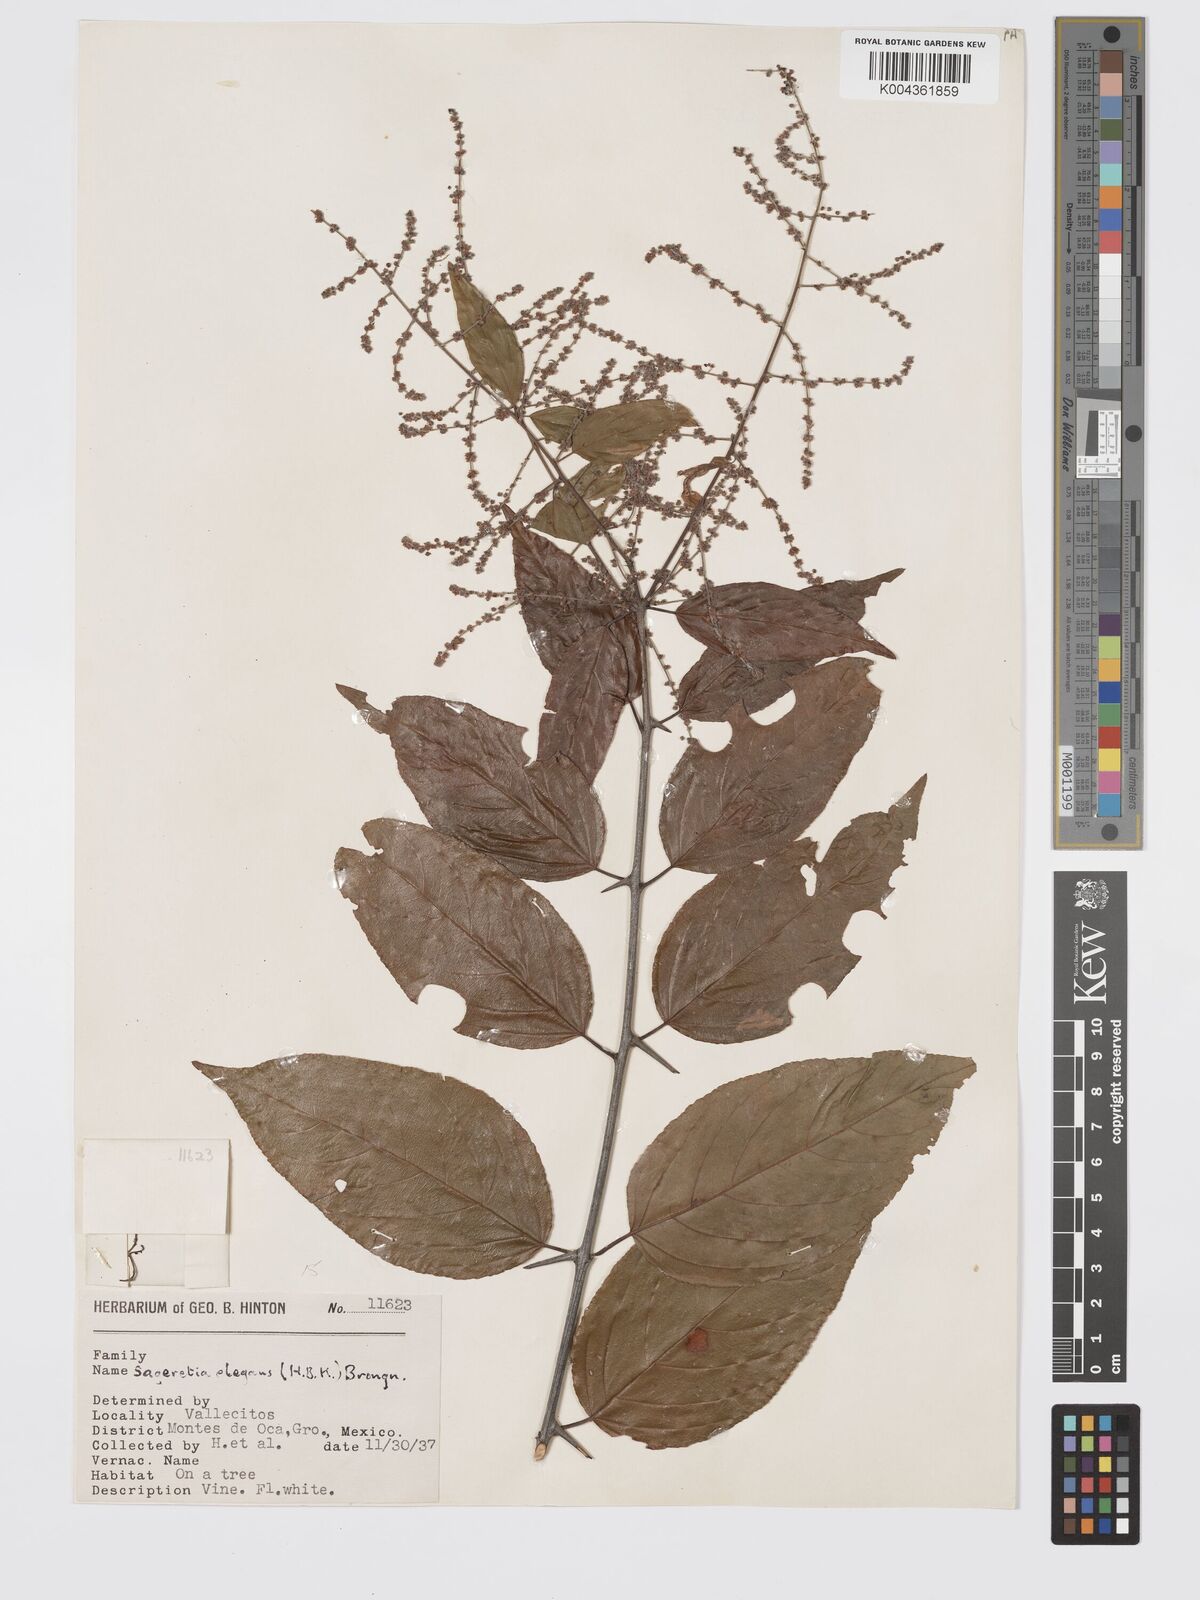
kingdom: Plantae
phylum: Tracheophyta
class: Magnoliopsida
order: Rosales
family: Rhamnaceae
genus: Sageretia
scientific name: Sageretia elegans
